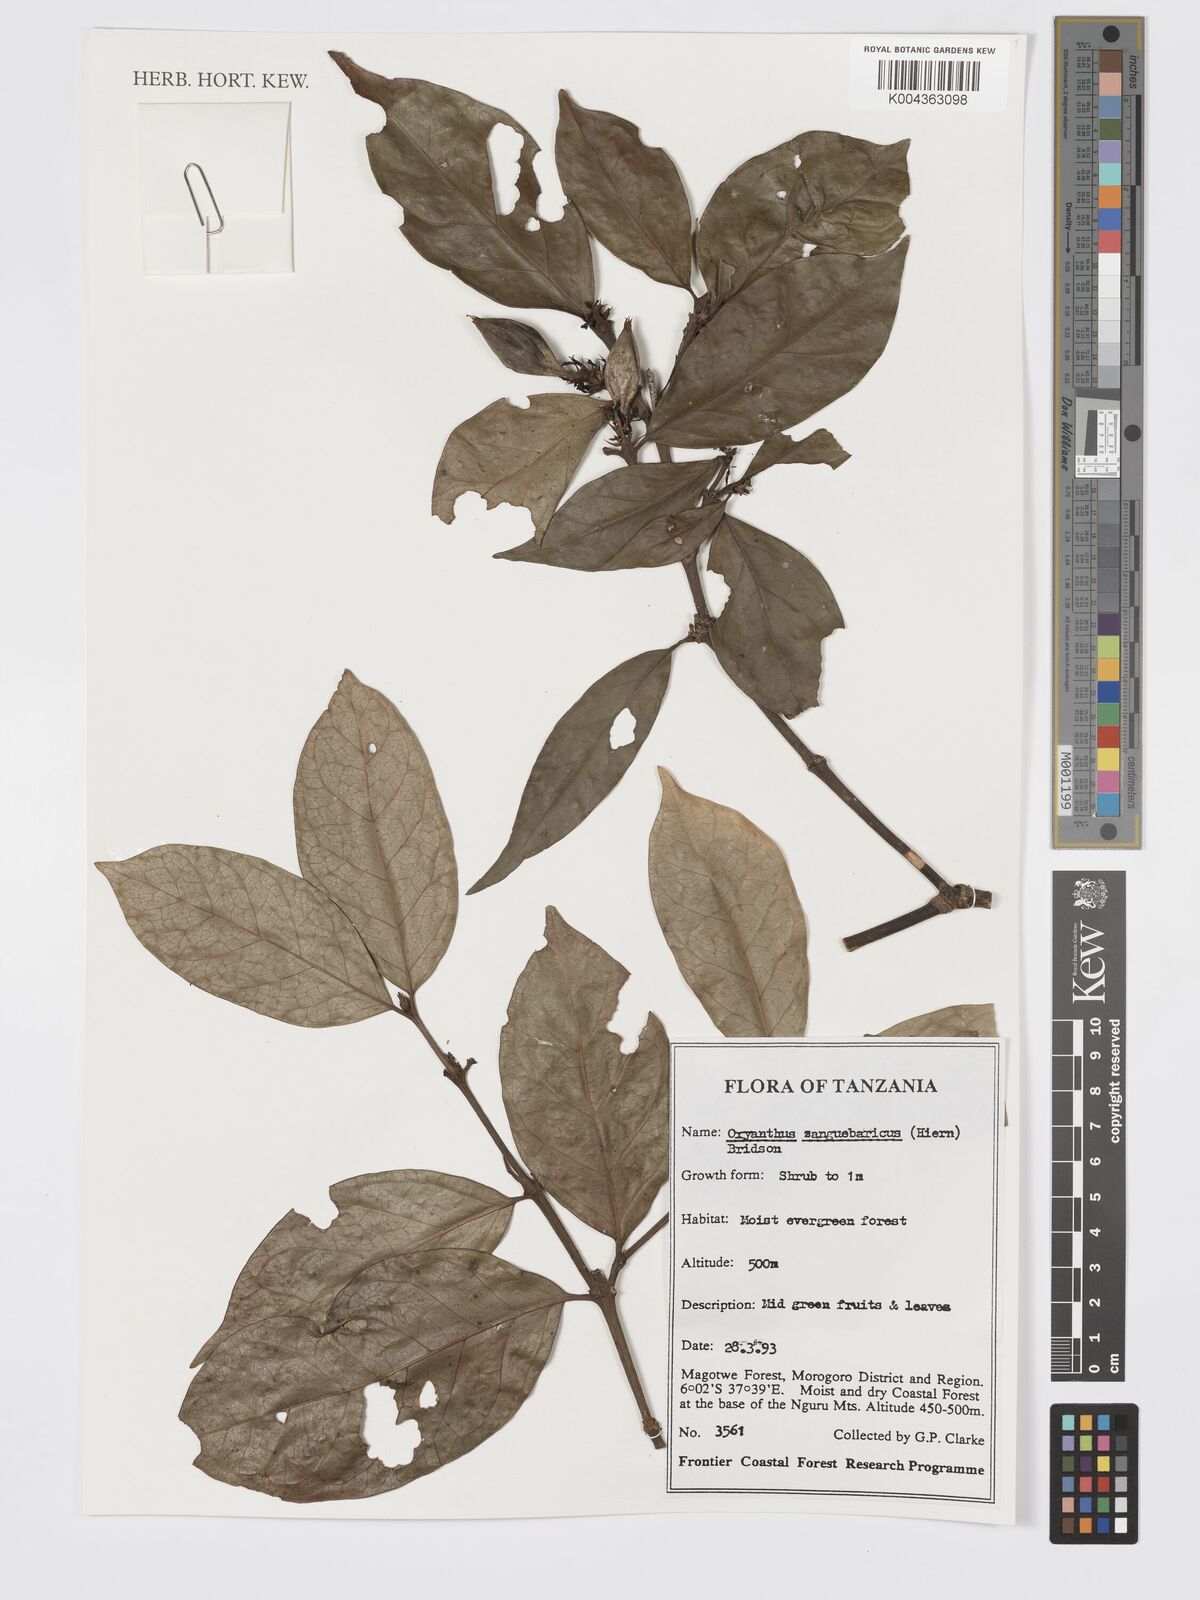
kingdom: Plantae
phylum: Tracheophyta
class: Magnoliopsida
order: Gentianales
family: Rubiaceae
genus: Oxyanthus
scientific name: Oxyanthus zanguebaricus
